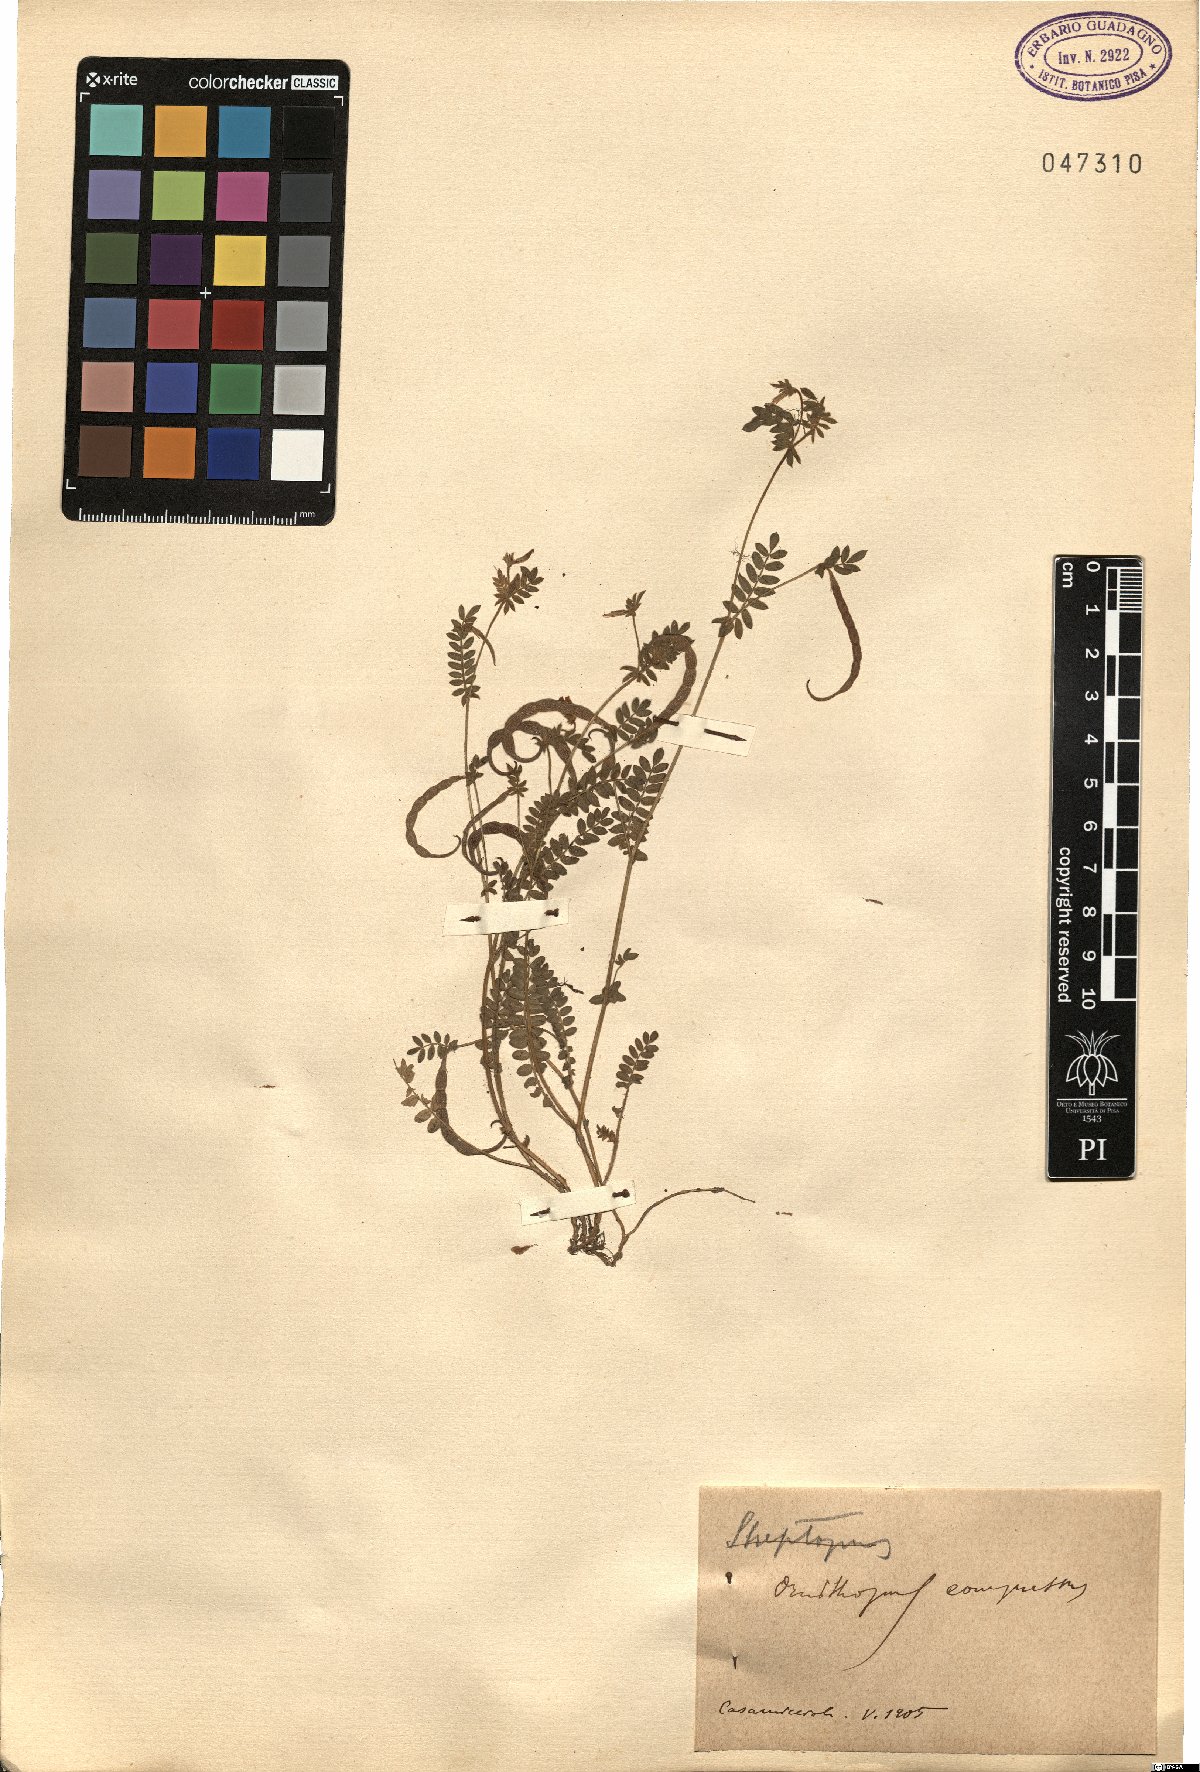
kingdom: Plantae
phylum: Tracheophyta
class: Magnoliopsida
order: Fabales
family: Fabaceae
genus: Ornithopus
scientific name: Ornithopus compressus
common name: Yellow serradella
